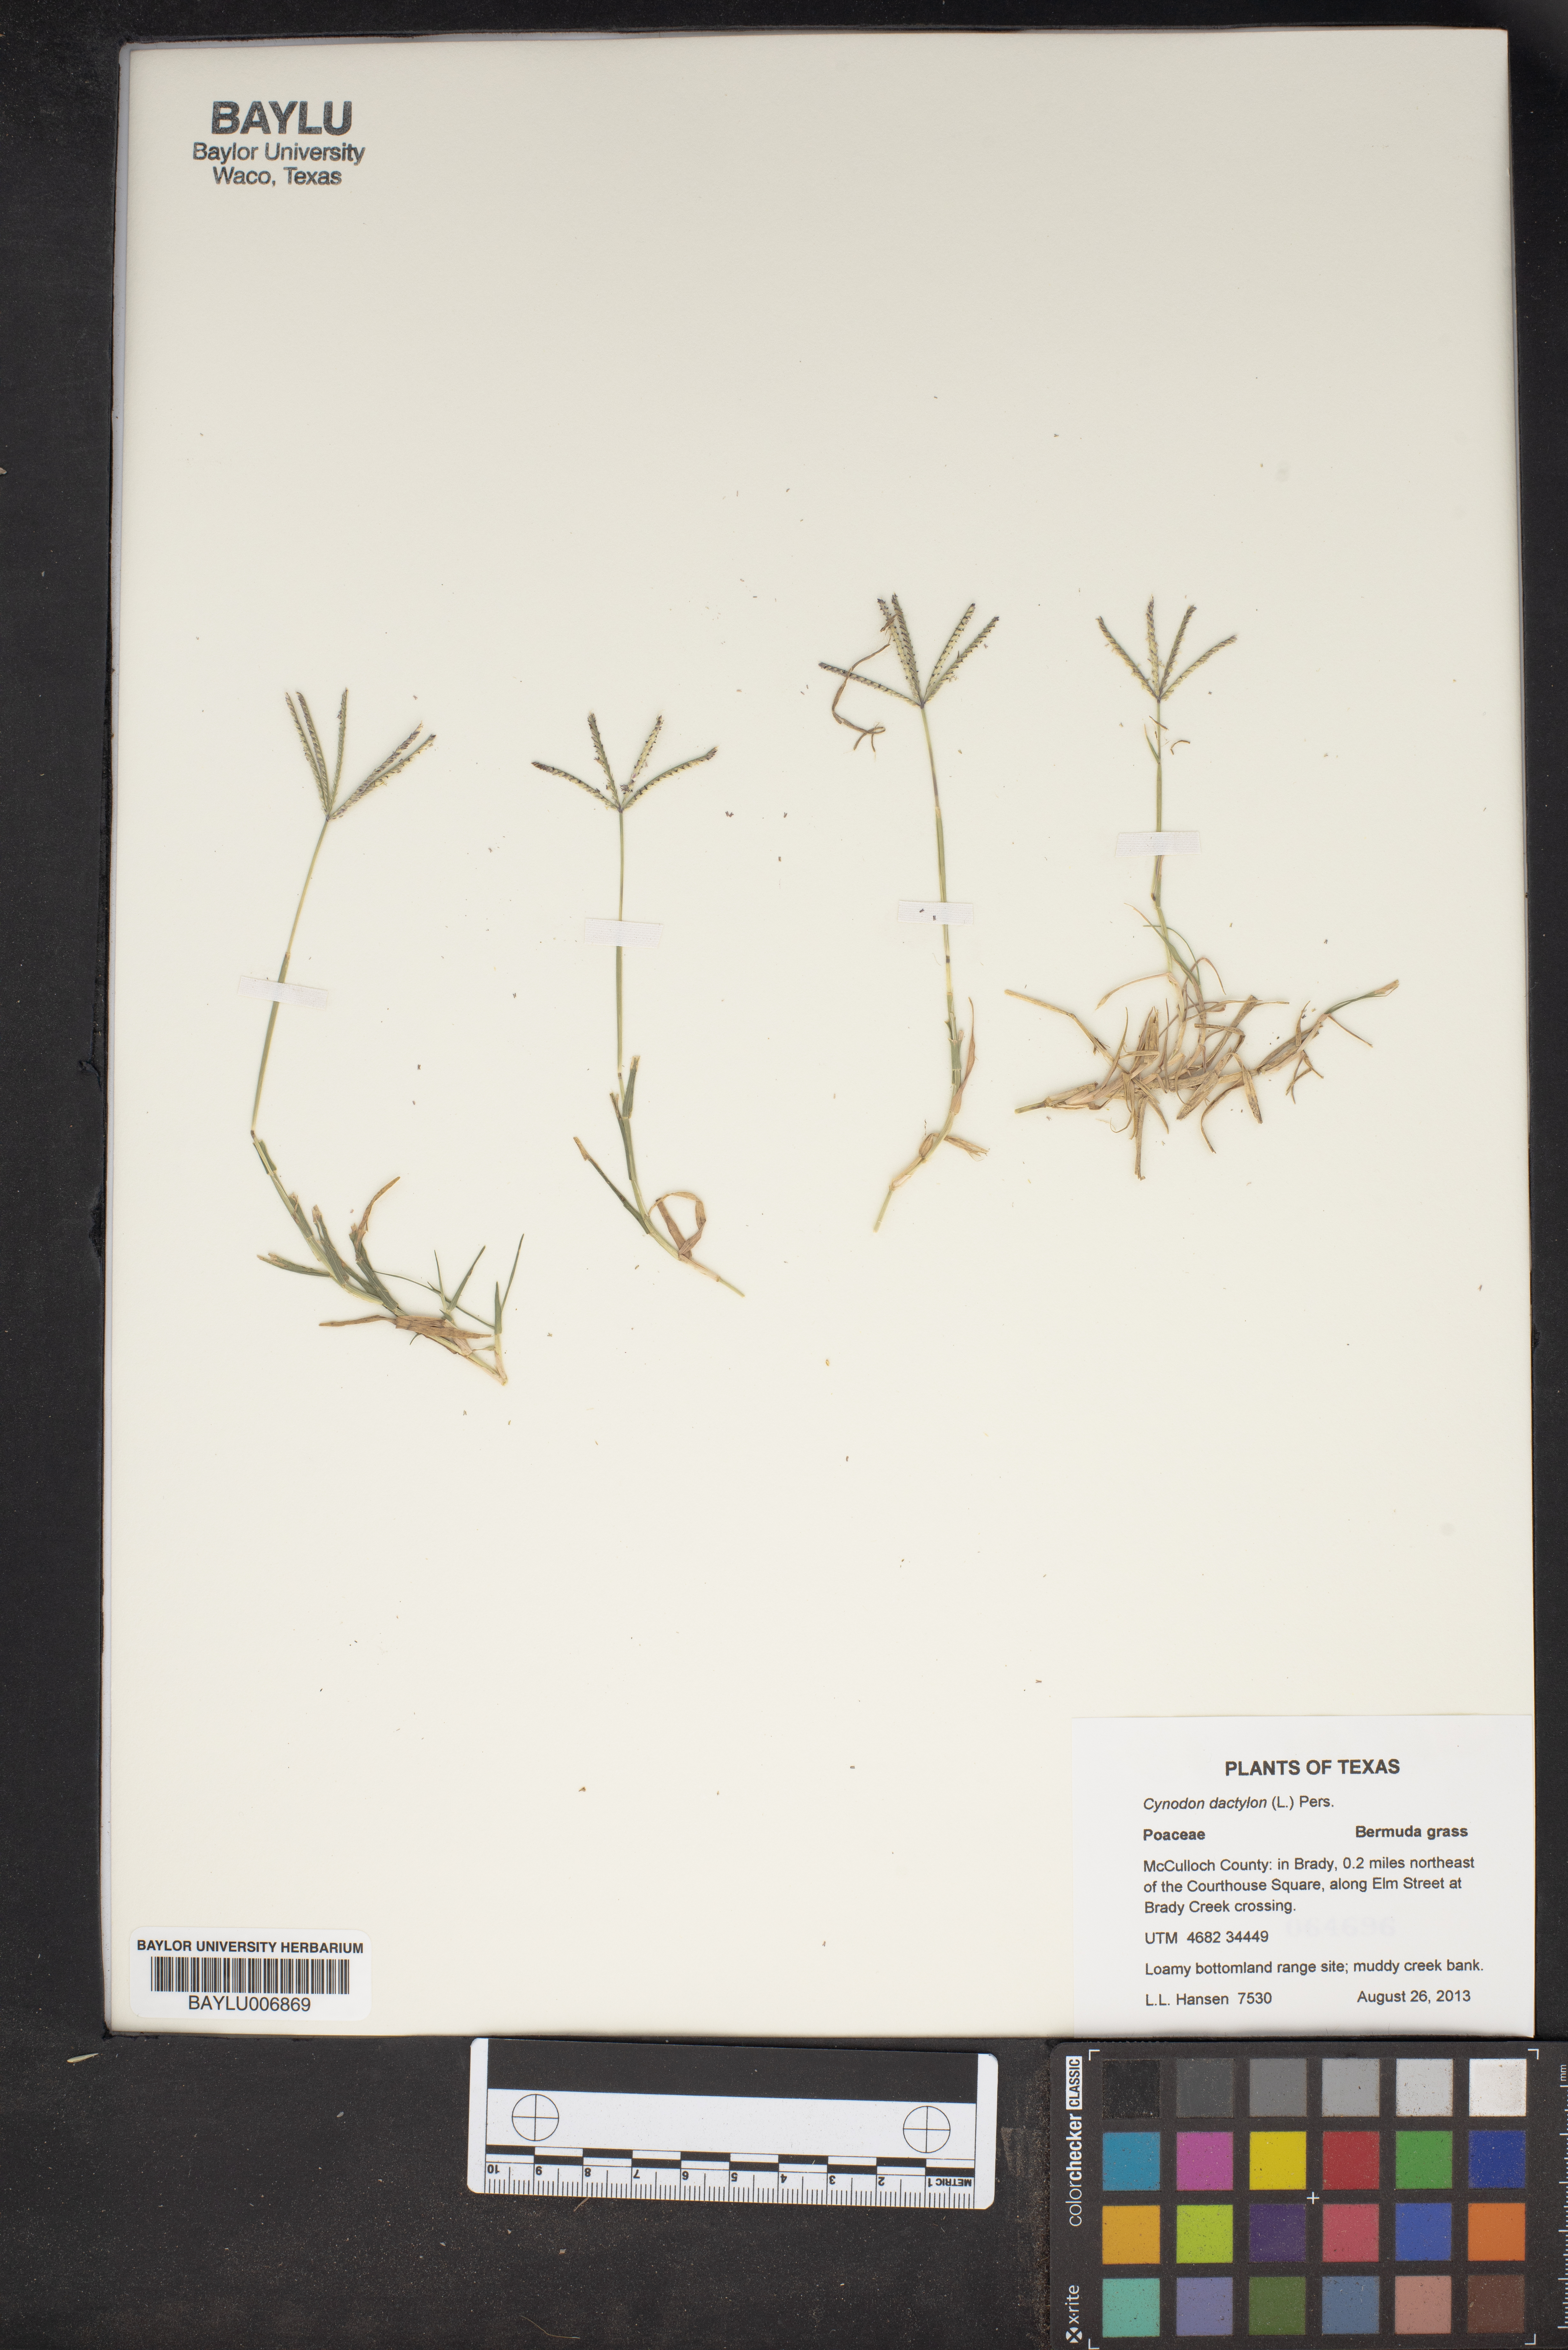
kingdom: Plantae
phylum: Tracheophyta
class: Liliopsida
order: Poales
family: Poaceae
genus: Cynodon
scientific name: Cynodon dactylon
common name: Bermuda grass
